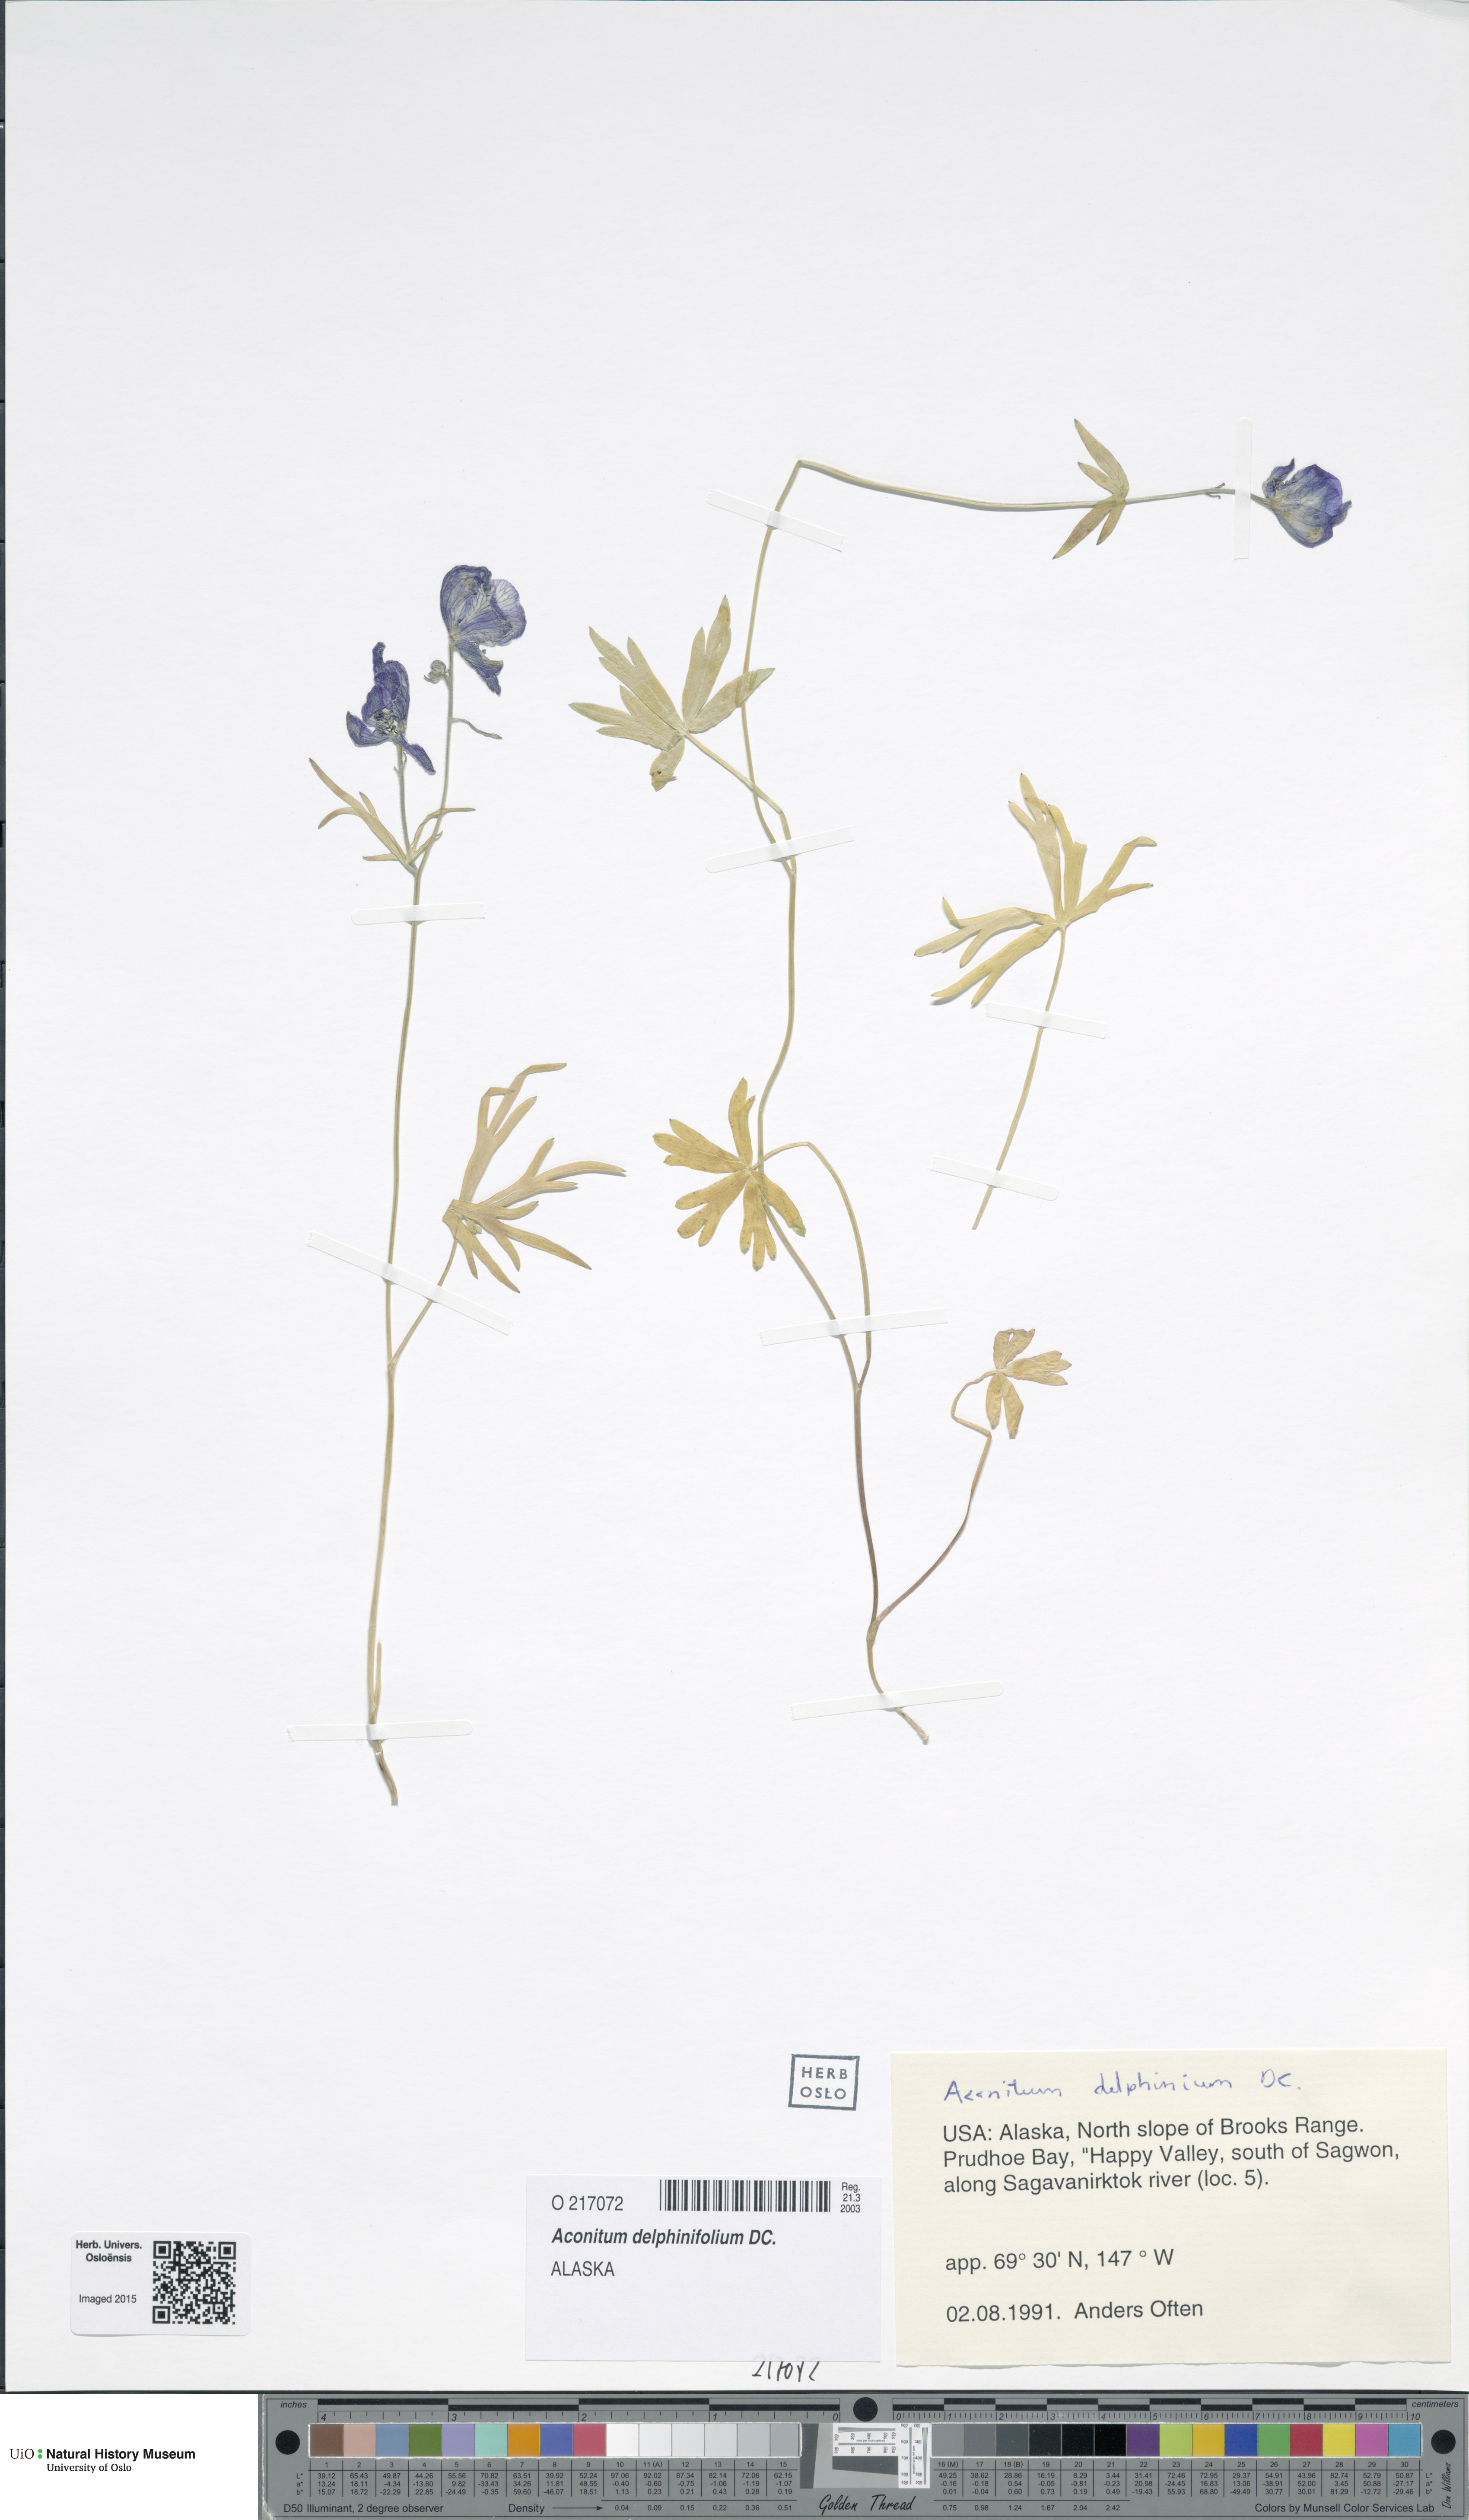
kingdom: Plantae
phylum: Tracheophyta
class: Magnoliopsida
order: Ranunculales
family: Ranunculaceae
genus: Aconitum
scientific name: Aconitum delphinifolium
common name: Larkspur-leaved monkshood
